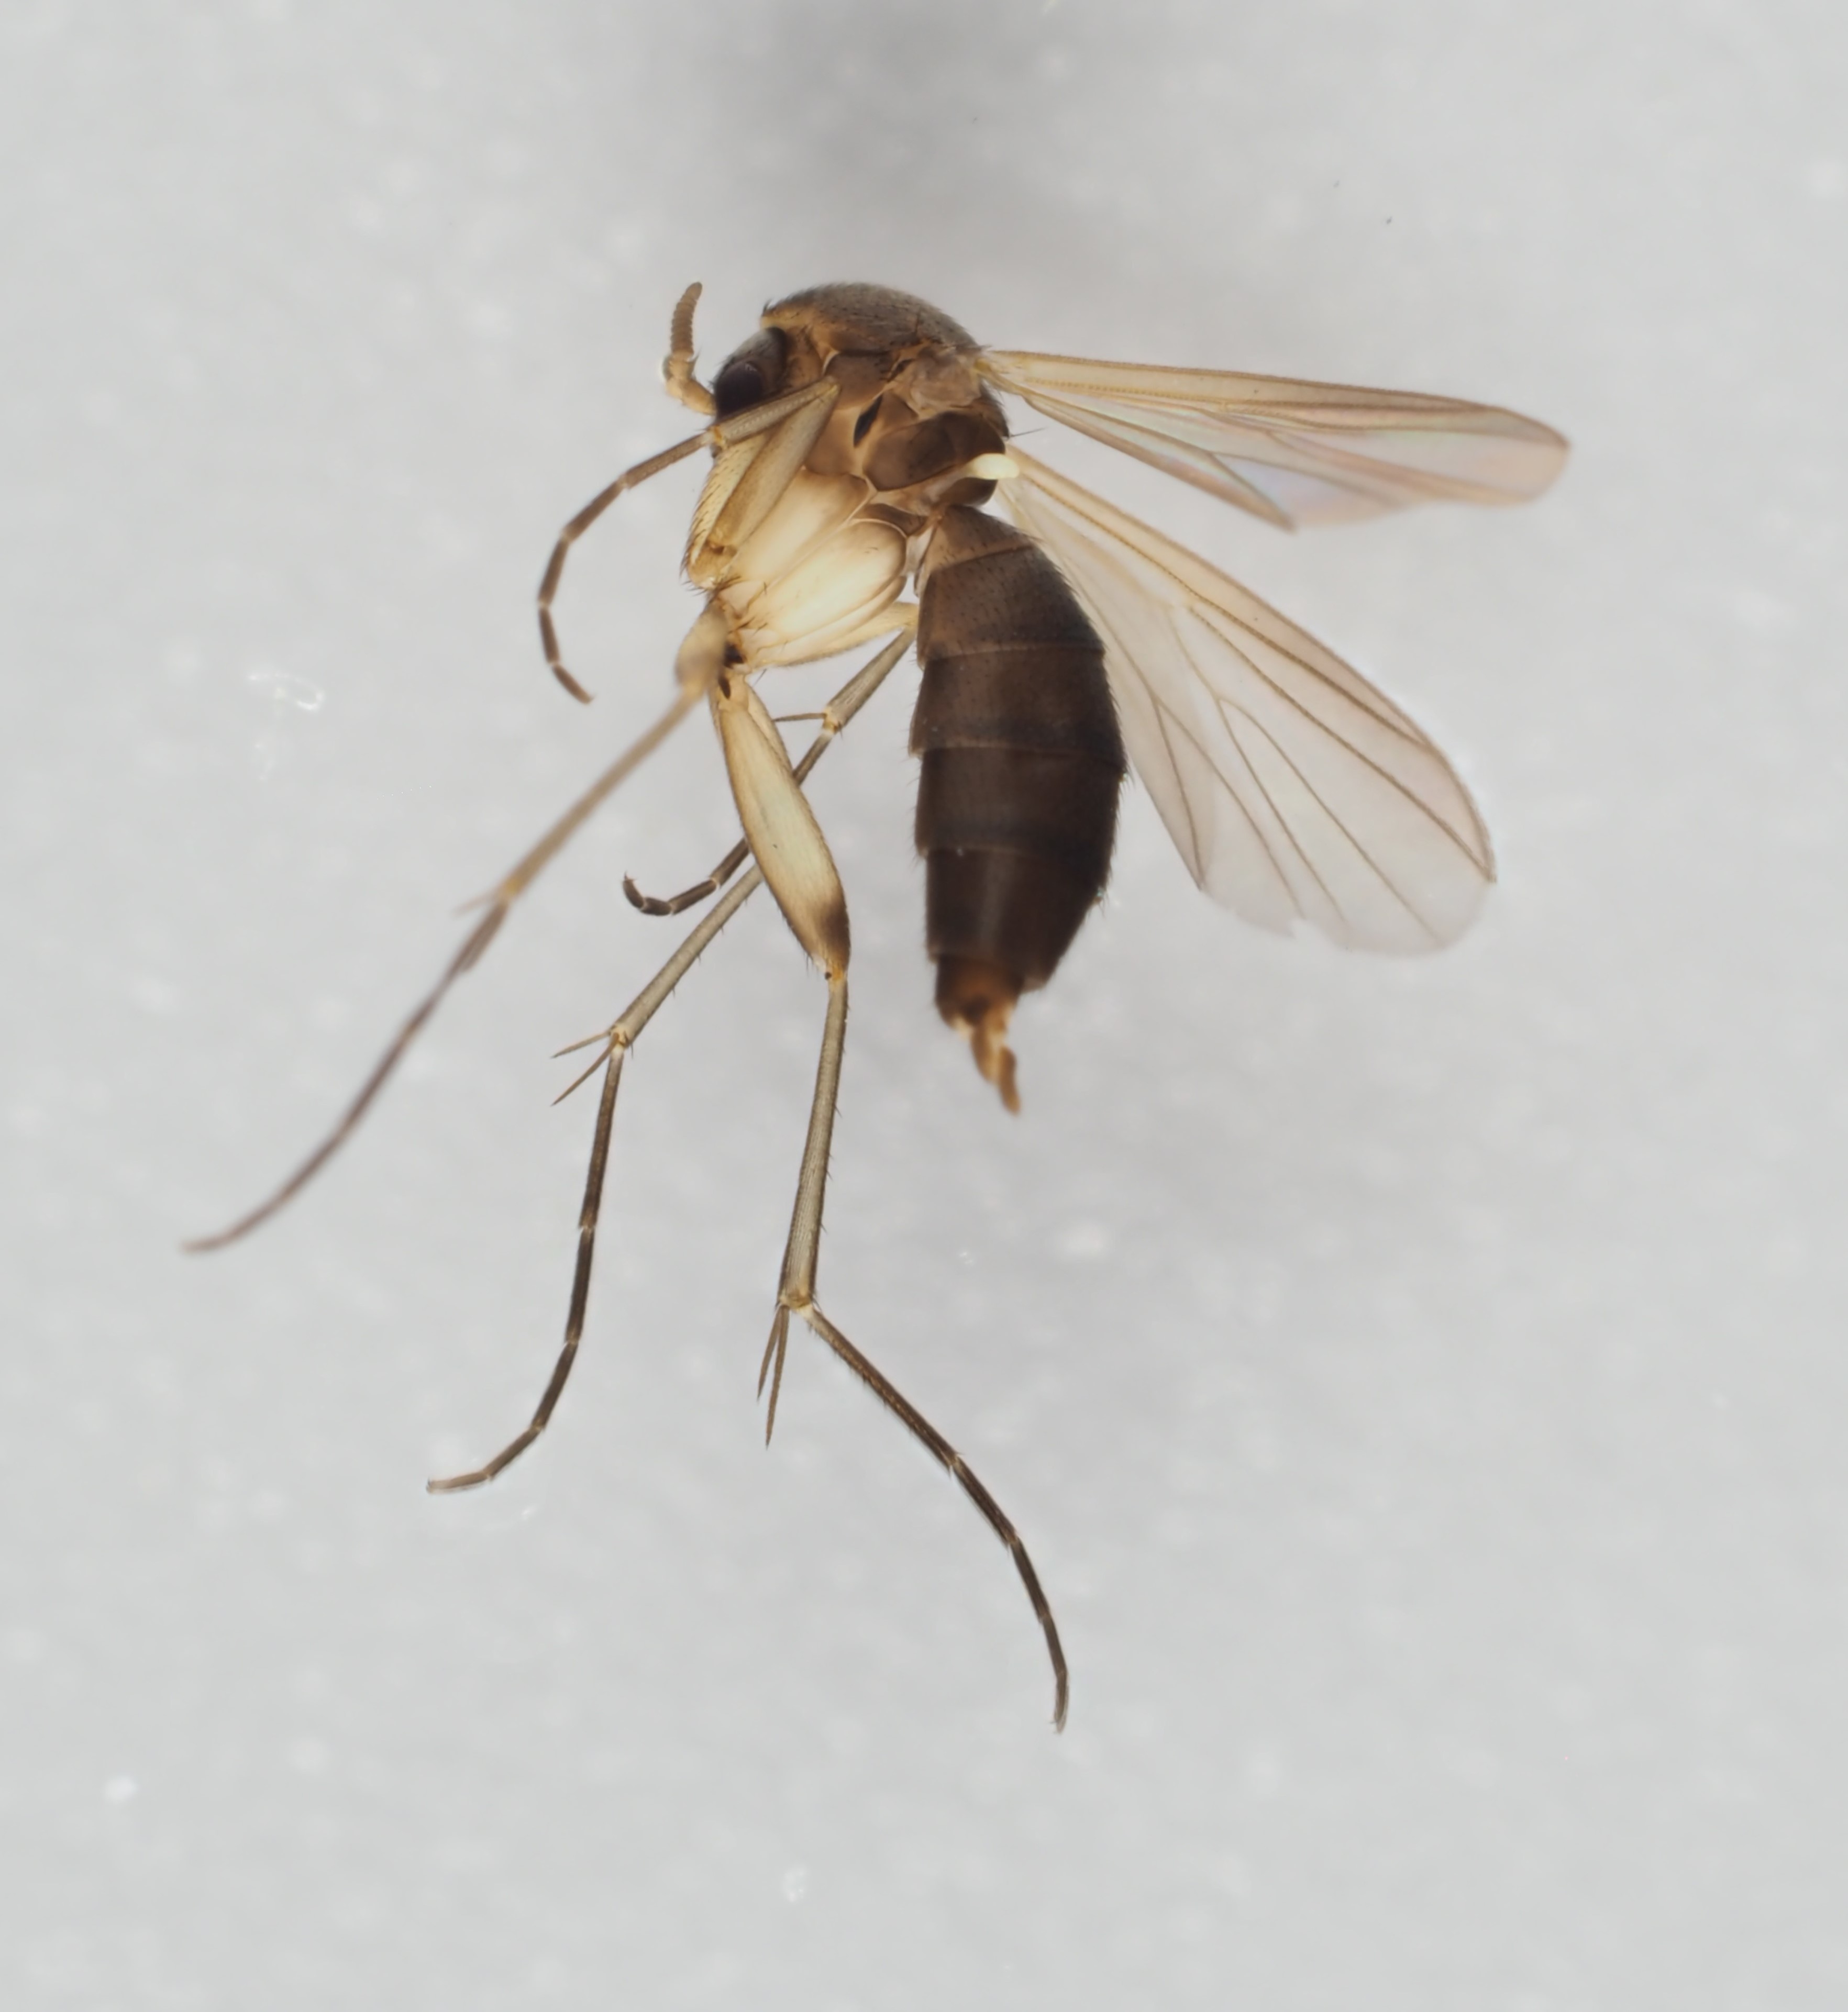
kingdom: Animalia
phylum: Arthropoda
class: Insecta
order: Diptera
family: Mycetophilidae
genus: Cordyla
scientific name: Cordyla crassicornis
